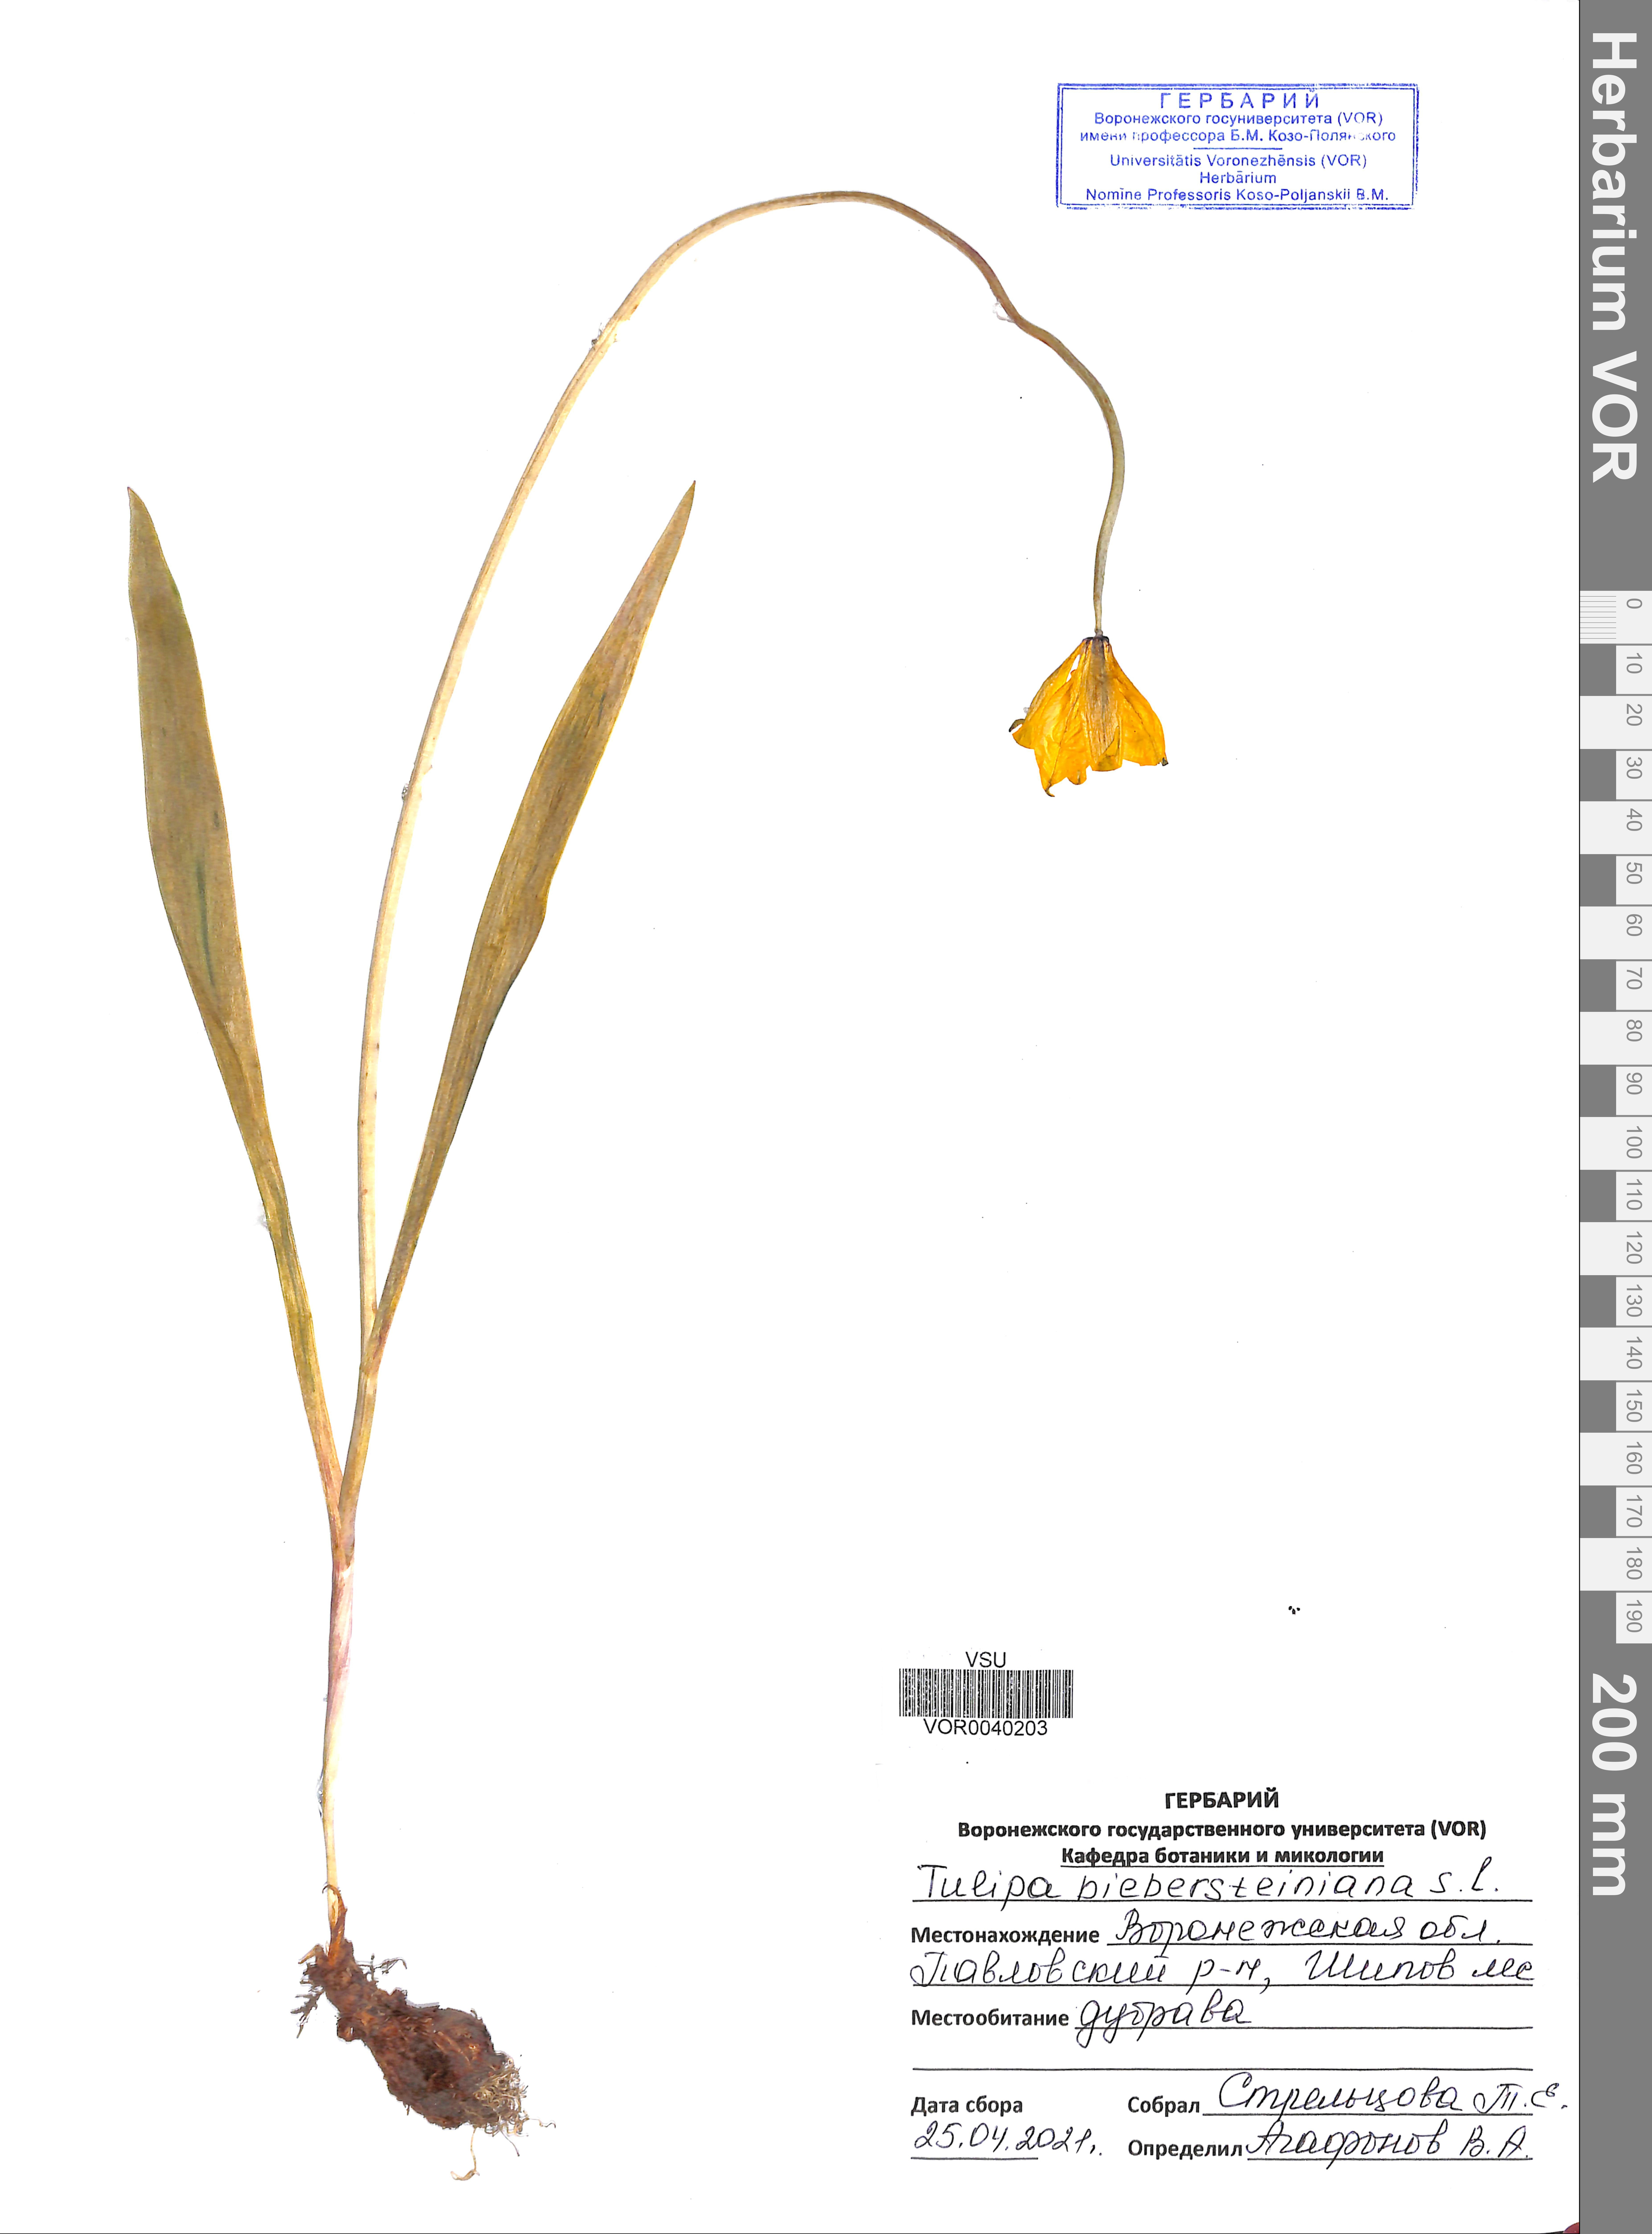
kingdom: Plantae
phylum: Tracheophyta
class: Liliopsida
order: Liliales
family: Liliaceae
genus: Tulipa
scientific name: Tulipa sylvestris
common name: Wild tulip
